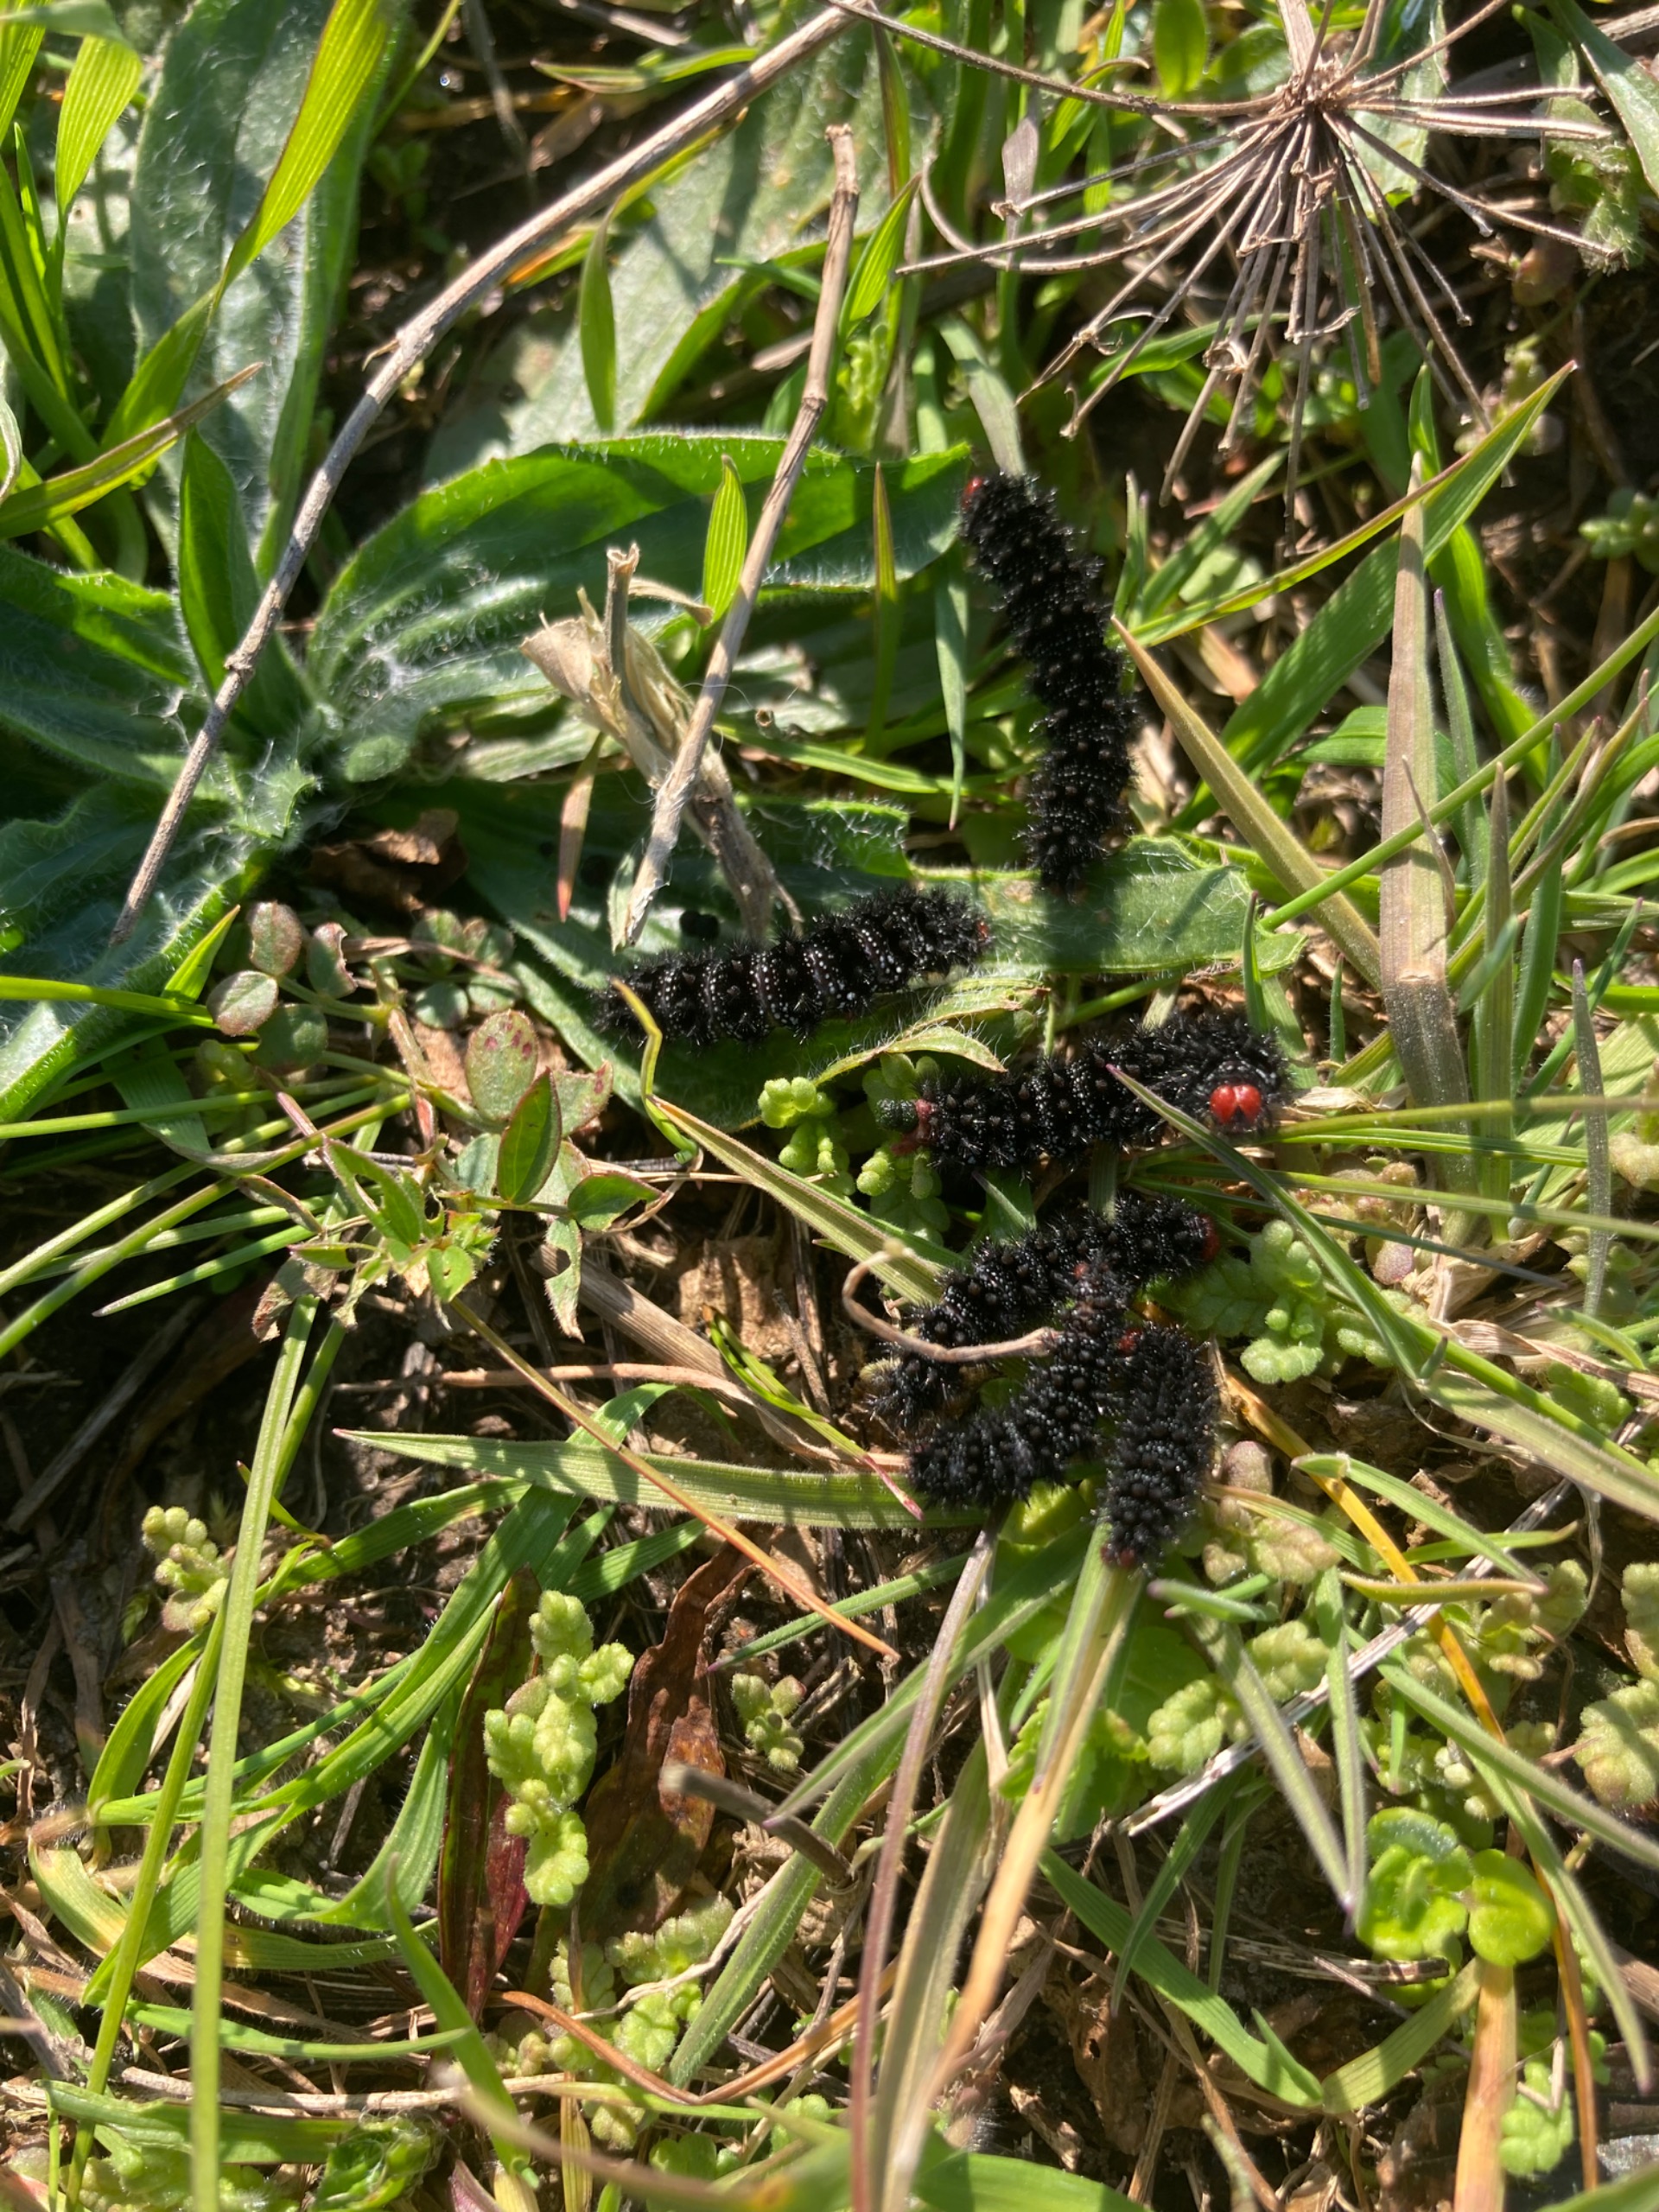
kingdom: Animalia
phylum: Arthropoda
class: Insecta
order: Lepidoptera
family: Nymphalidae
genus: Melitaea
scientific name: Melitaea cinxia
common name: Okkergul pletvinge
